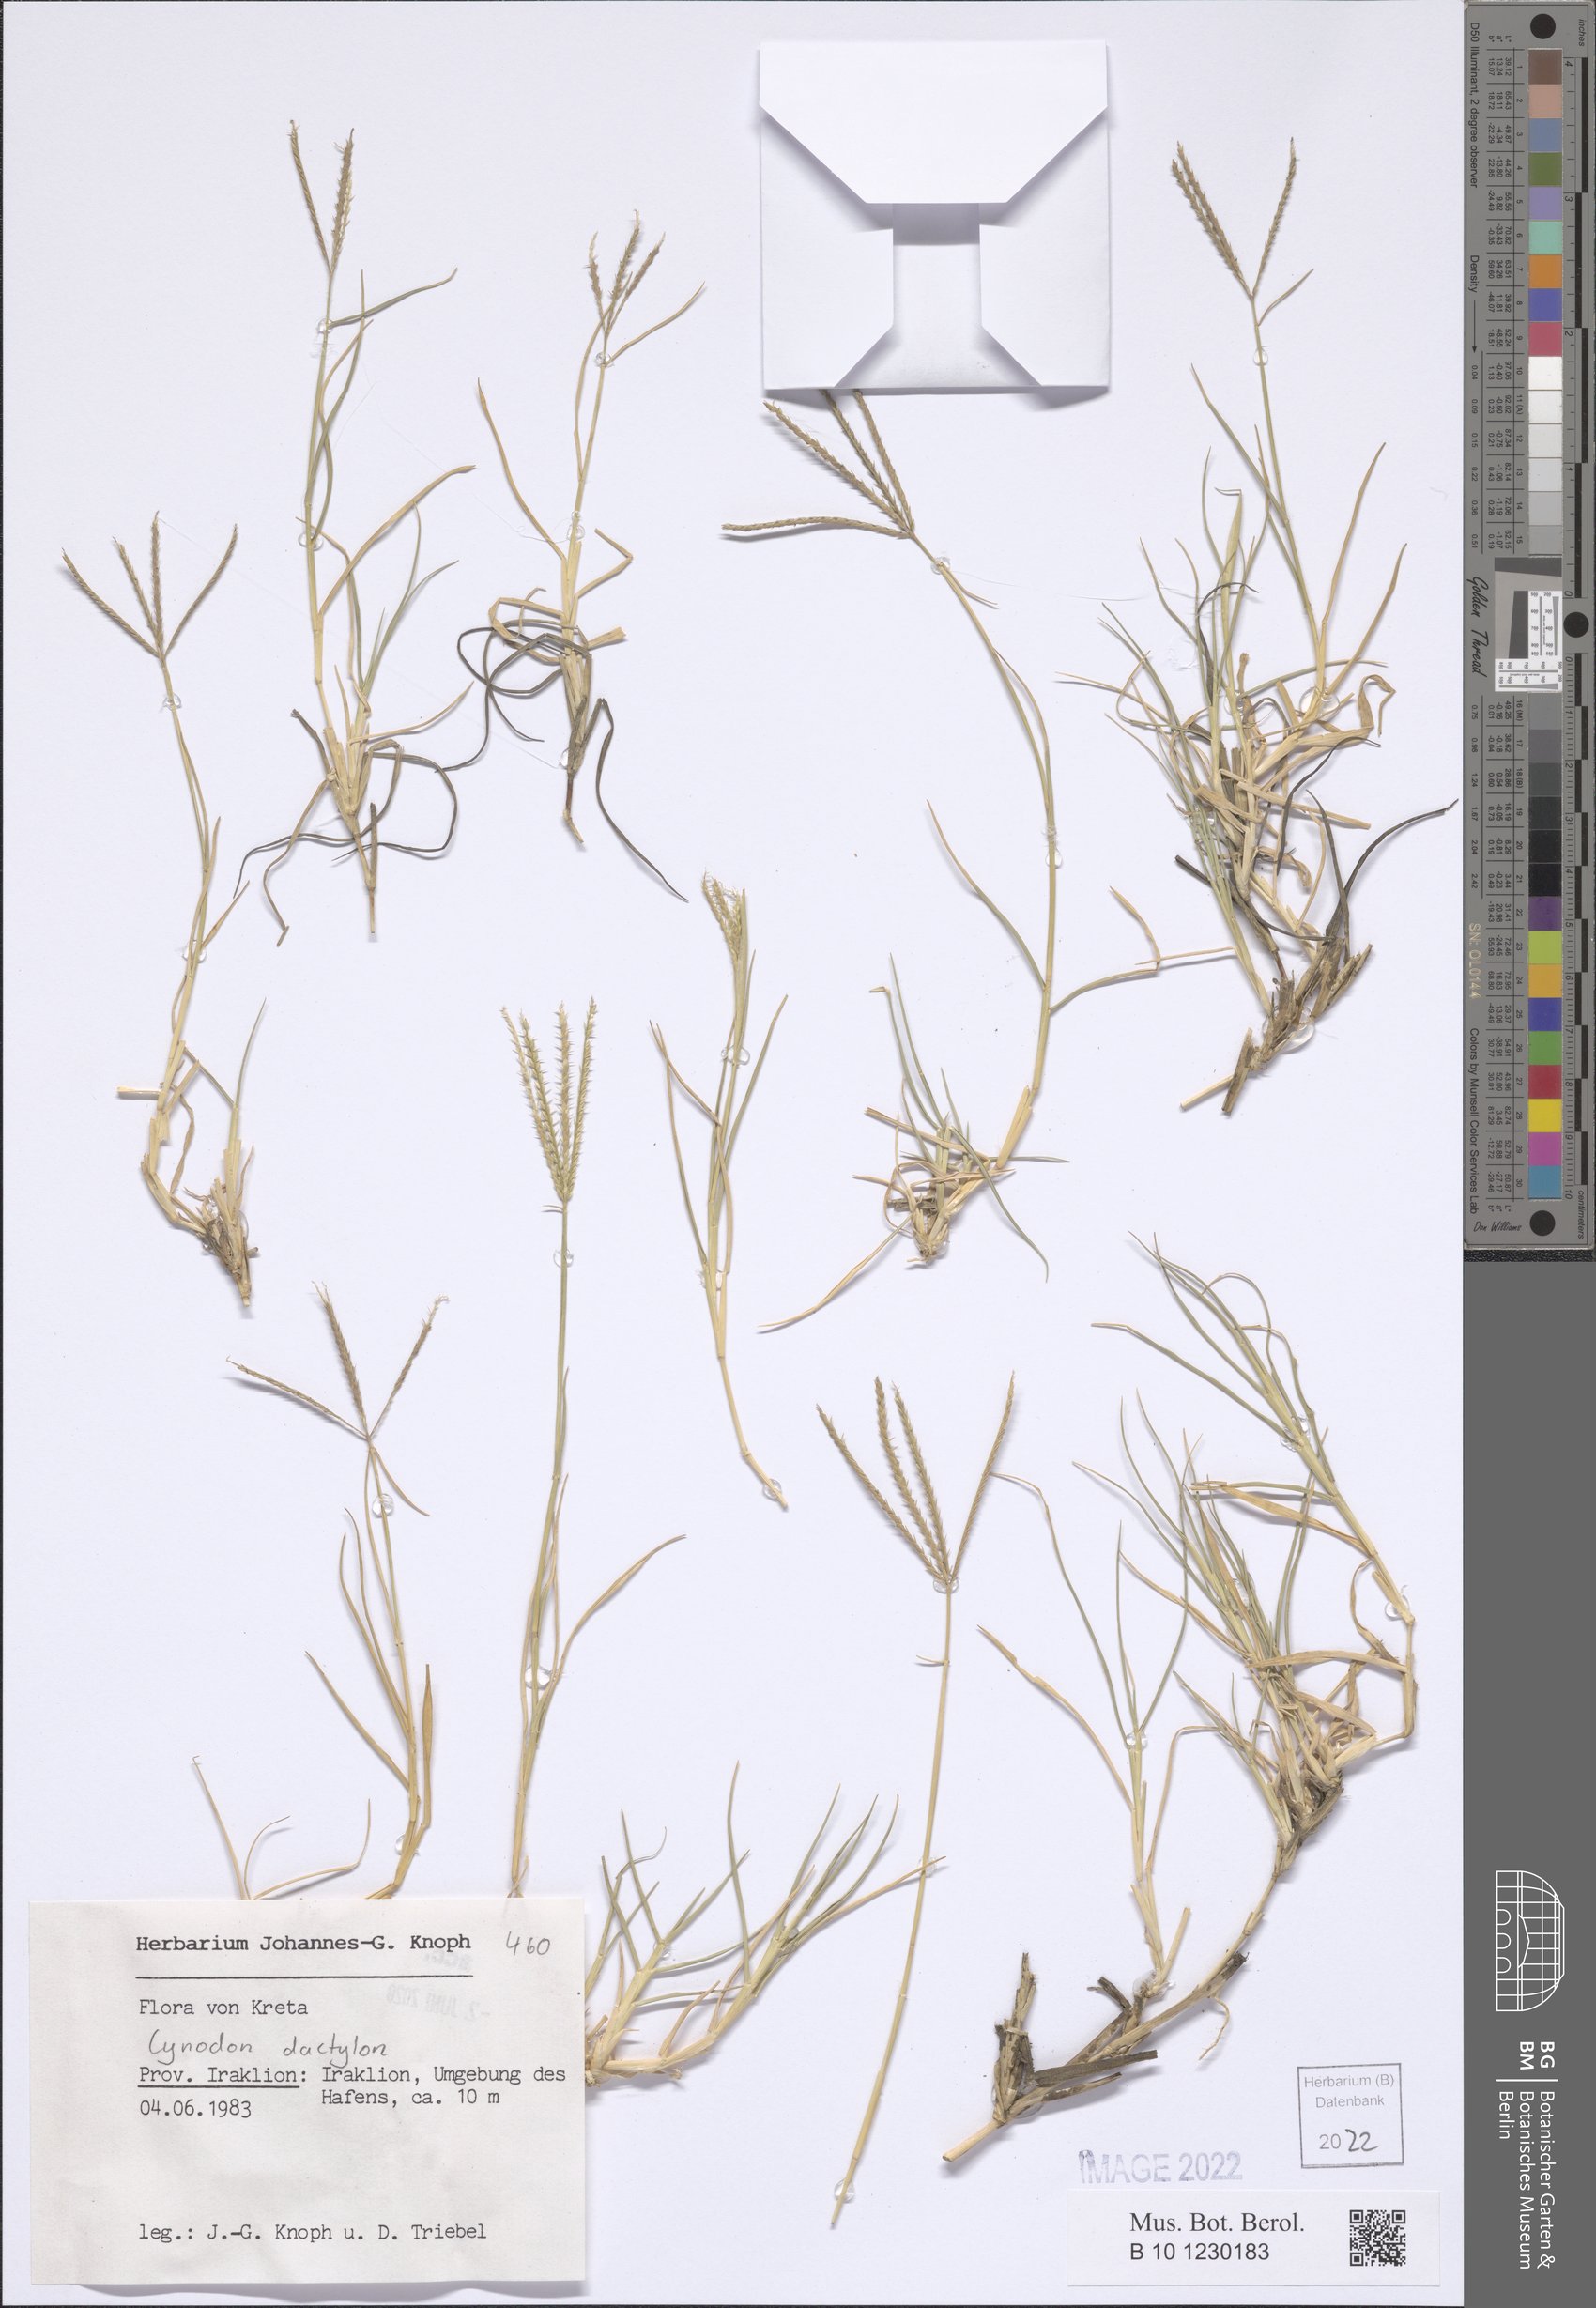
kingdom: Plantae
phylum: Tracheophyta
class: Liliopsida
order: Poales
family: Poaceae
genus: Cynodon
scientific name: Cynodon dactylon
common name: Bermuda grass
